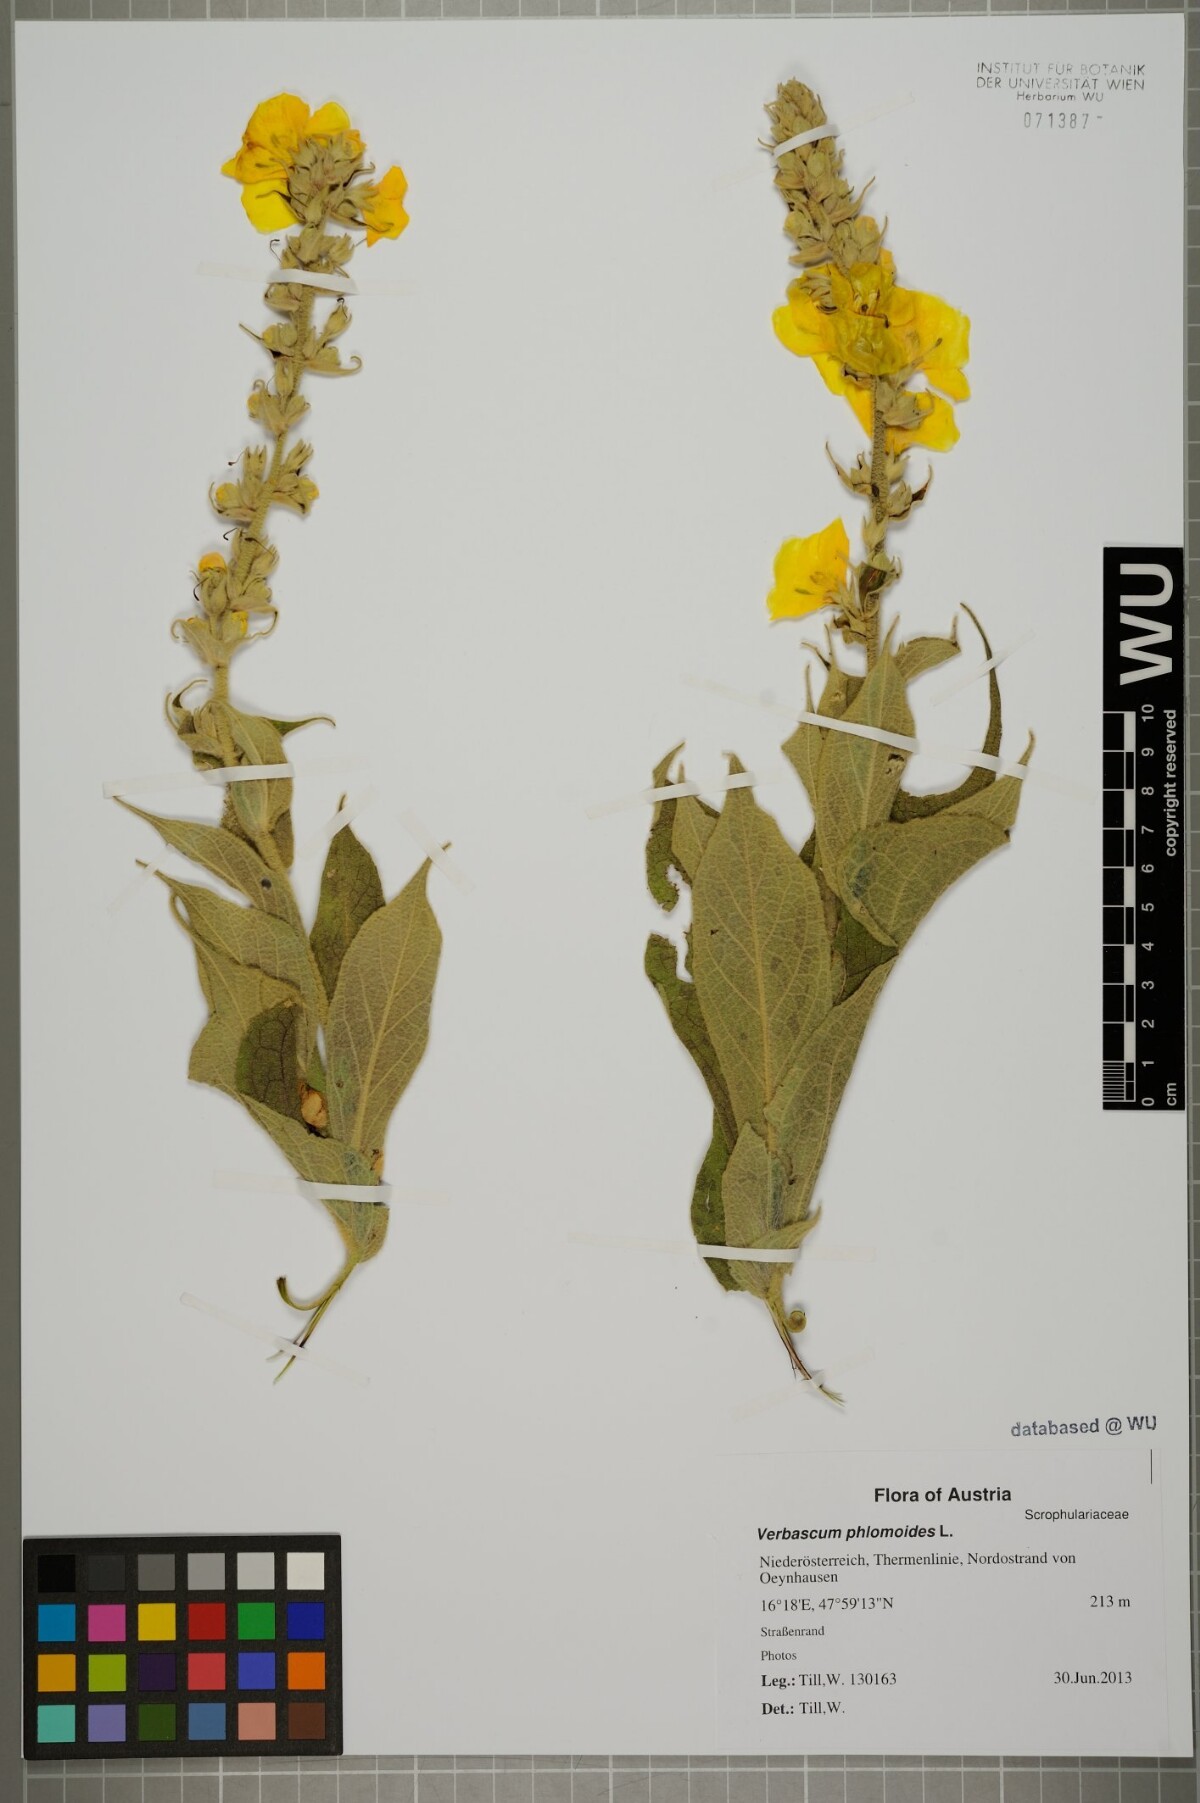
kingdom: Plantae
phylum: Tracheophyta
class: Magnoliopsida
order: Lamiales
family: Scrophulariaceae
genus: Verbascum
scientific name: Verbascum phlomoides
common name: Orange mullein
